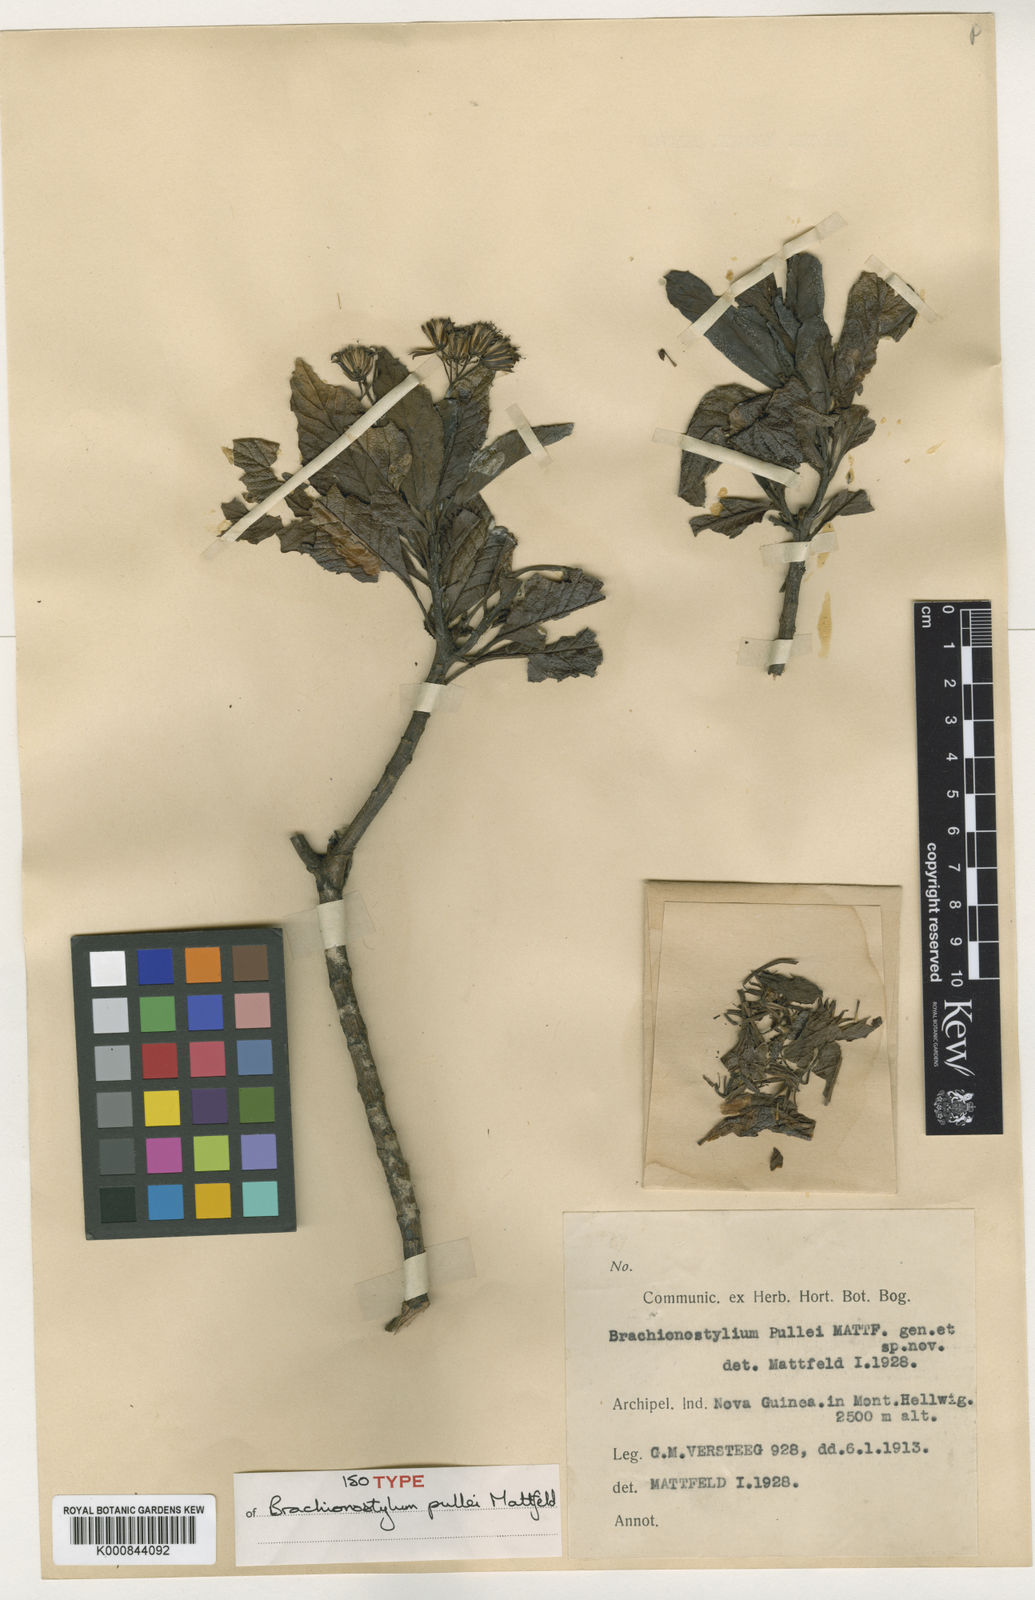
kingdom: Plantae
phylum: Tracheophyta
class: Magnoliopsida
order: Asterales
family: Asteraceae
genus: Brachionostylum
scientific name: Brachionostylum pullei
